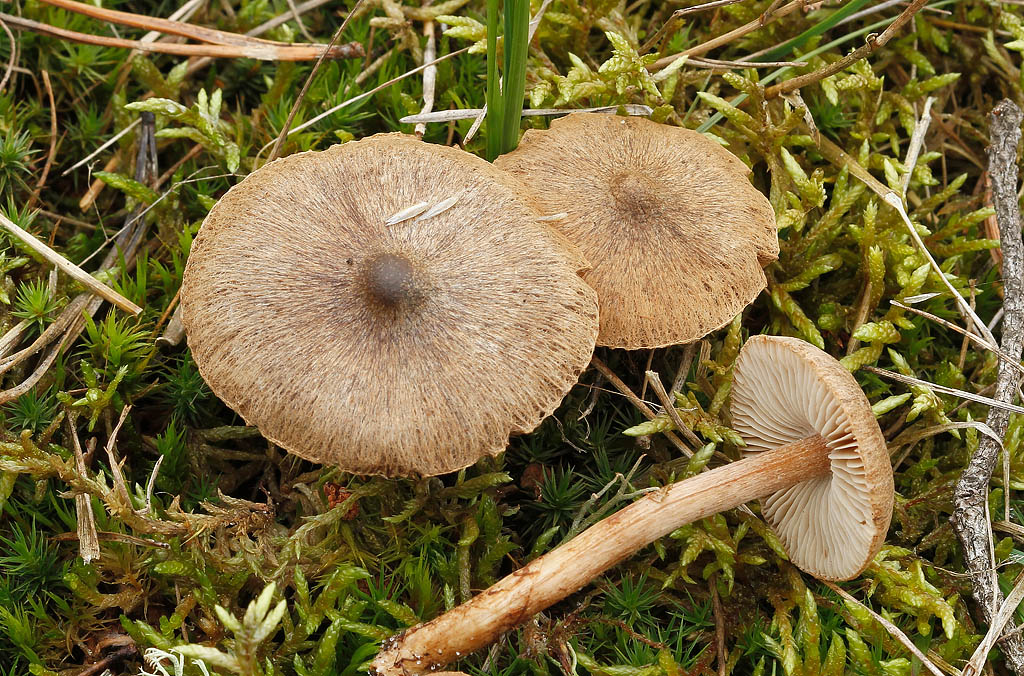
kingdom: Fungi
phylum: Basidiomycota
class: Agaricomycetes
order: Agaricales
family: Inocybaceae
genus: Inocybe
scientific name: Inocybe soluta
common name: lysbladet trævlhat
